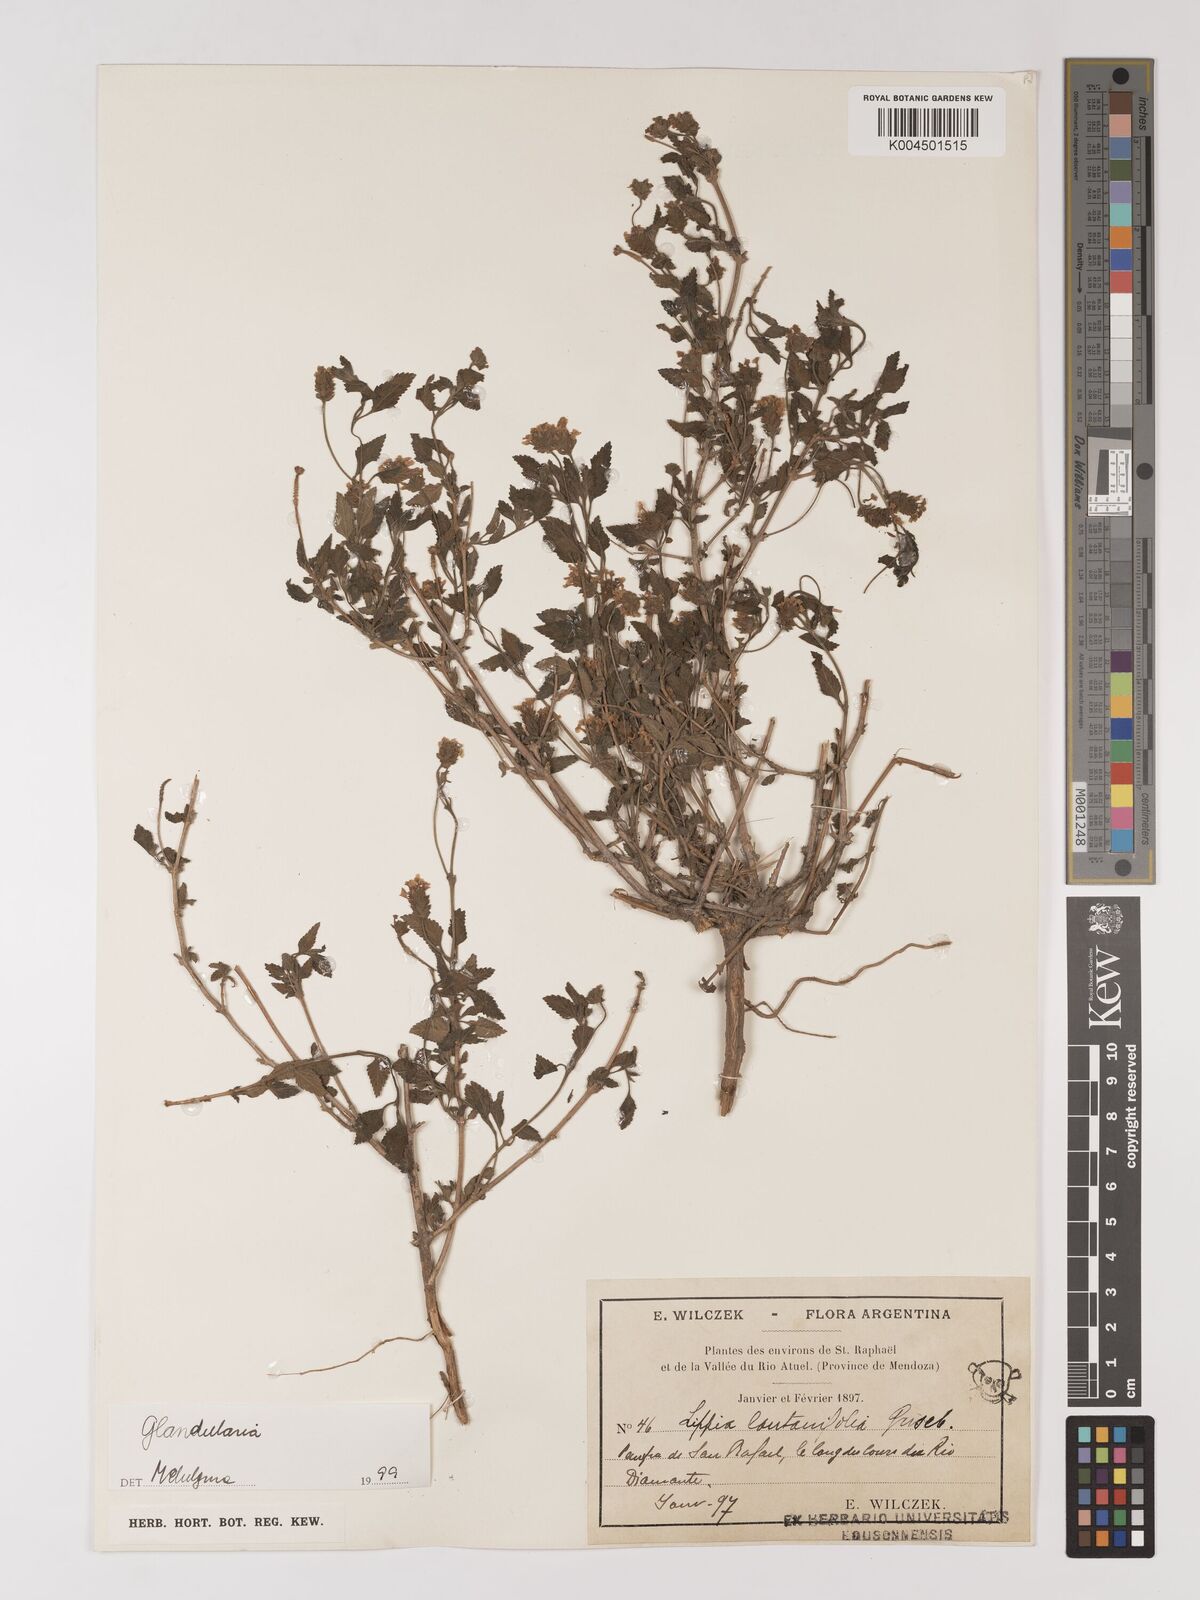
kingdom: Plantae
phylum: Tracheophyta
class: Magnoliopsida
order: Lamiales
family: Verbenaceae
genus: Verbena
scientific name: Verbena
